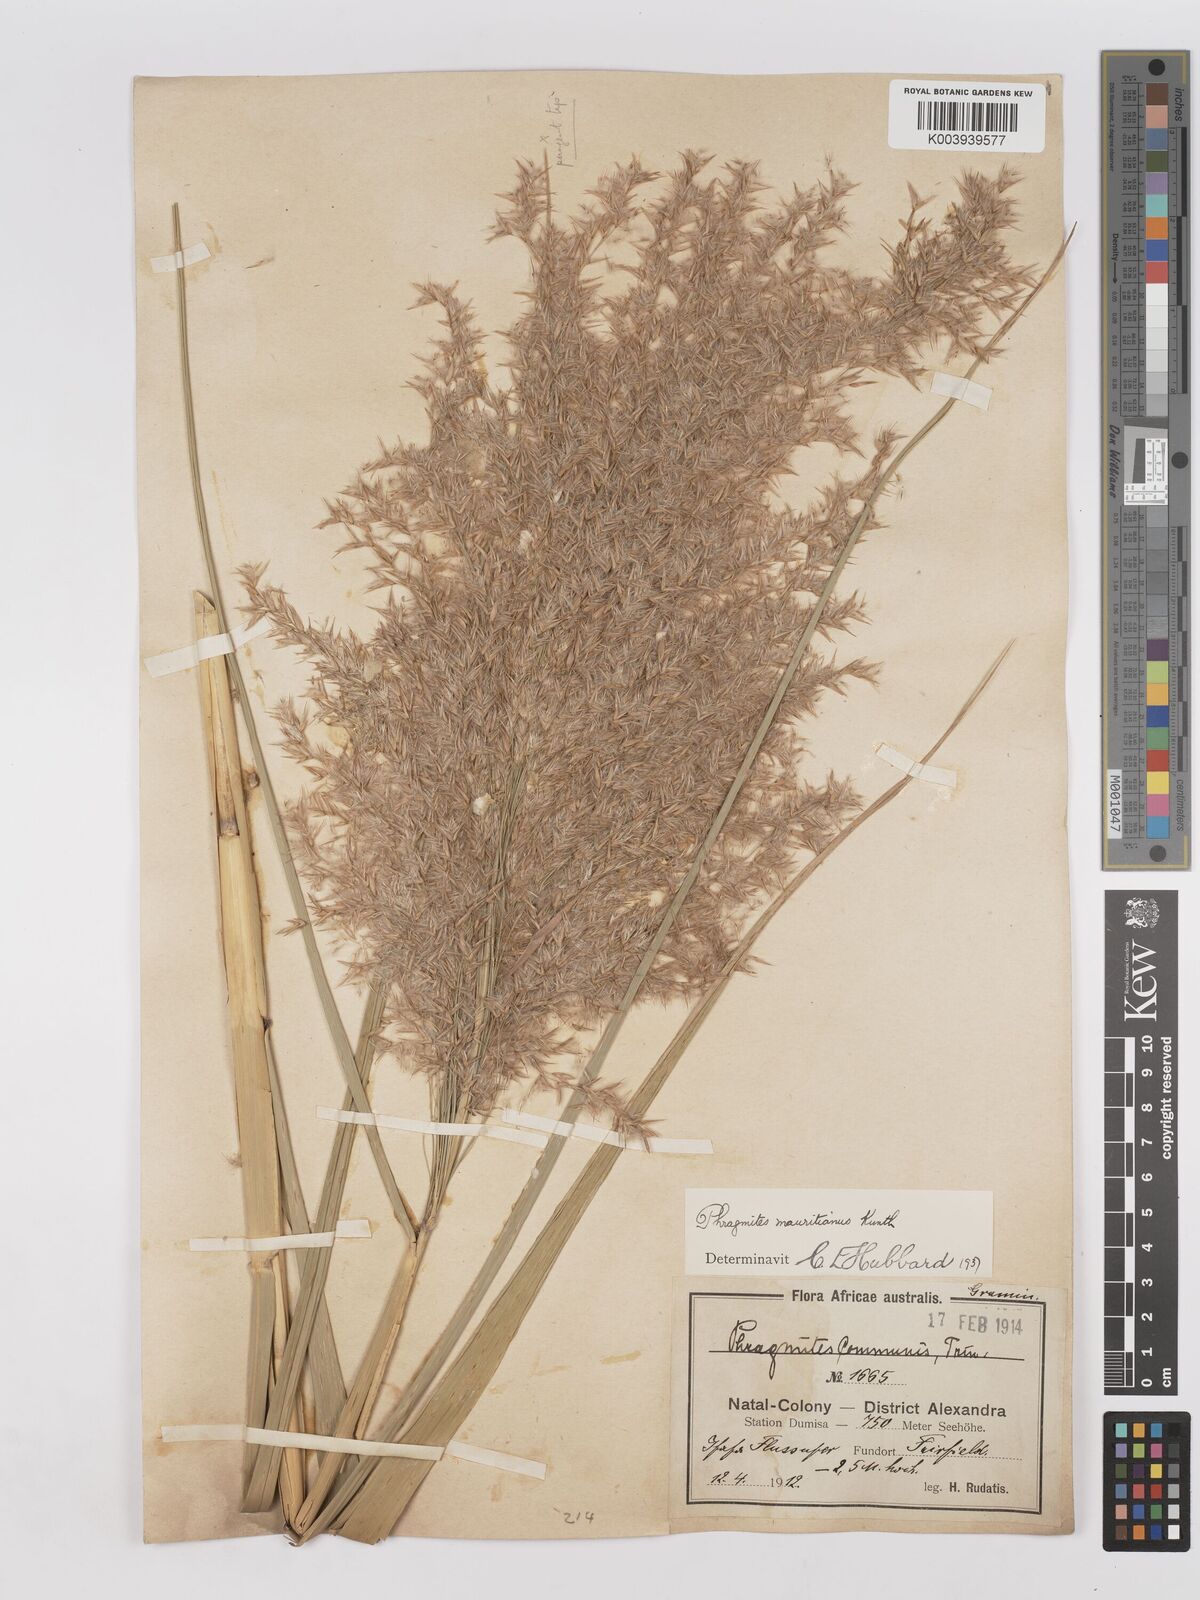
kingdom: Plantae
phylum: Tracheophyta
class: Liliopsida
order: Poales
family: Poaceae
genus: Phragmites
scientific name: Phragmites mauritianus
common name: Reed grass
